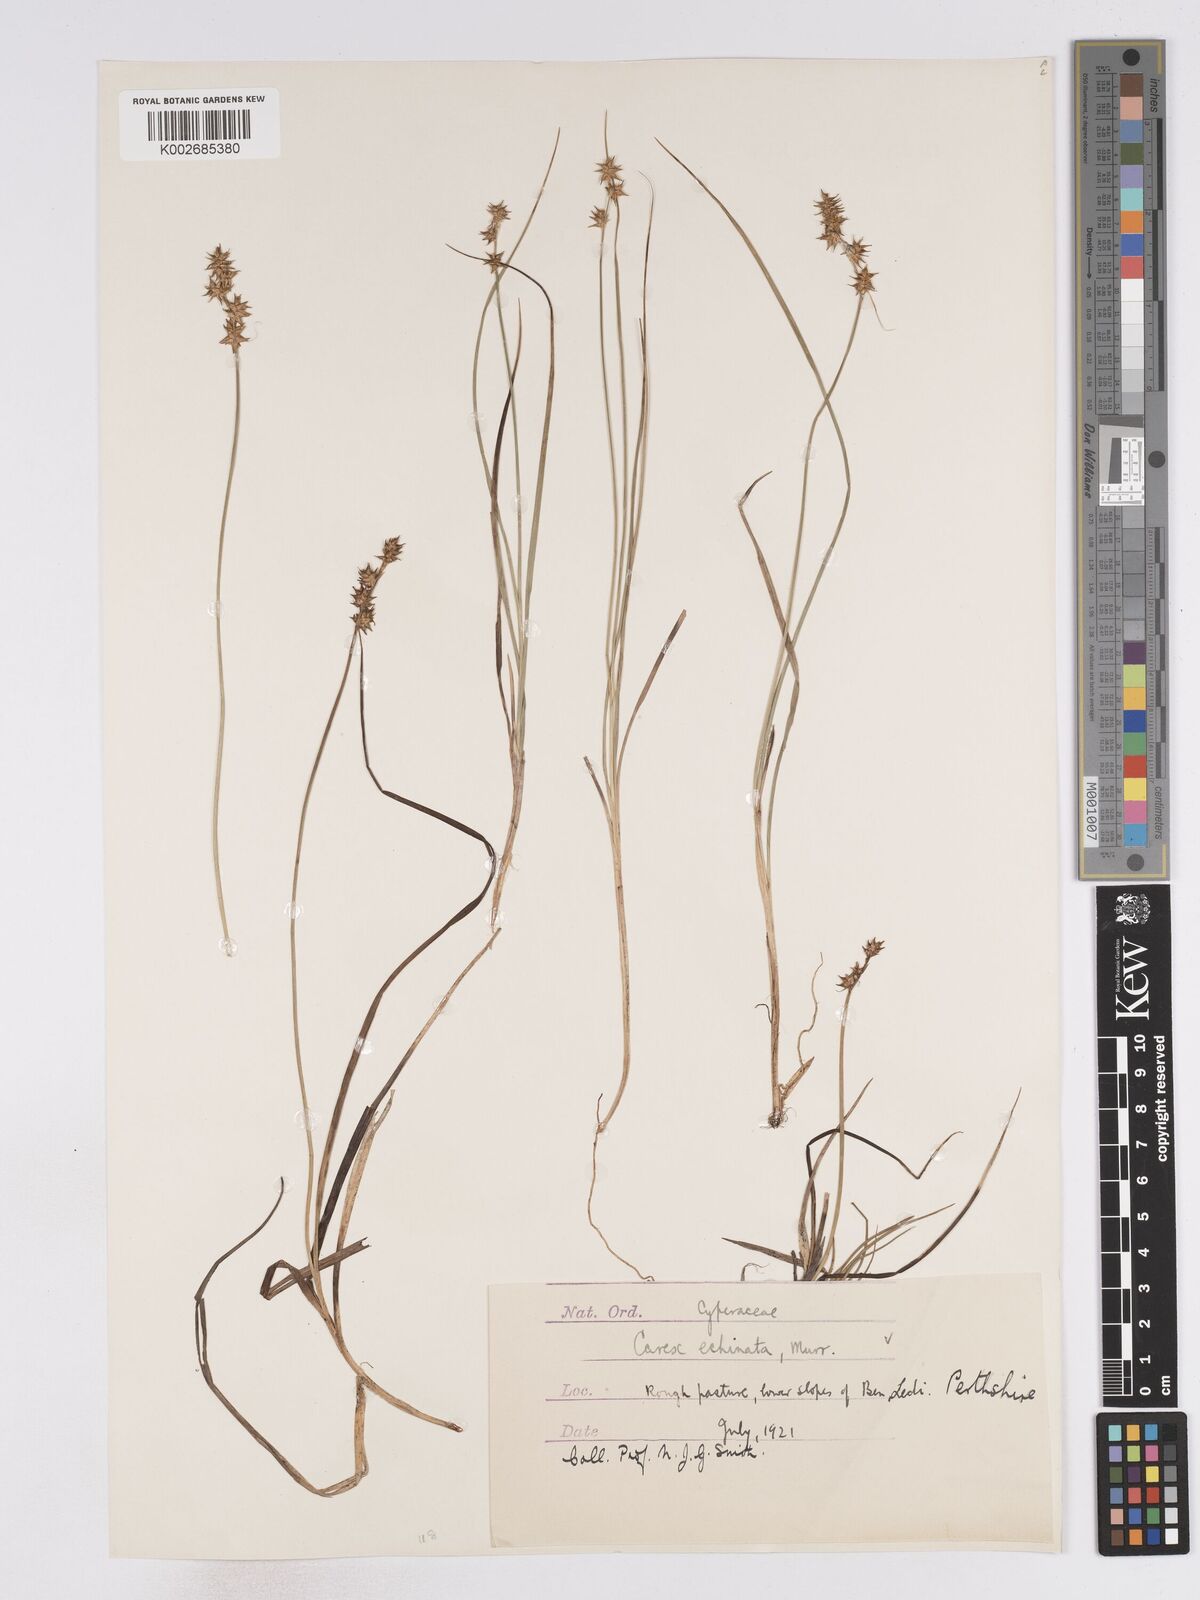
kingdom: Plantae
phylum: Tracheophyta
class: Liliopsida
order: Poales
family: Cyperaceae
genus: Carex
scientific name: Carex echinata
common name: Star sedge
